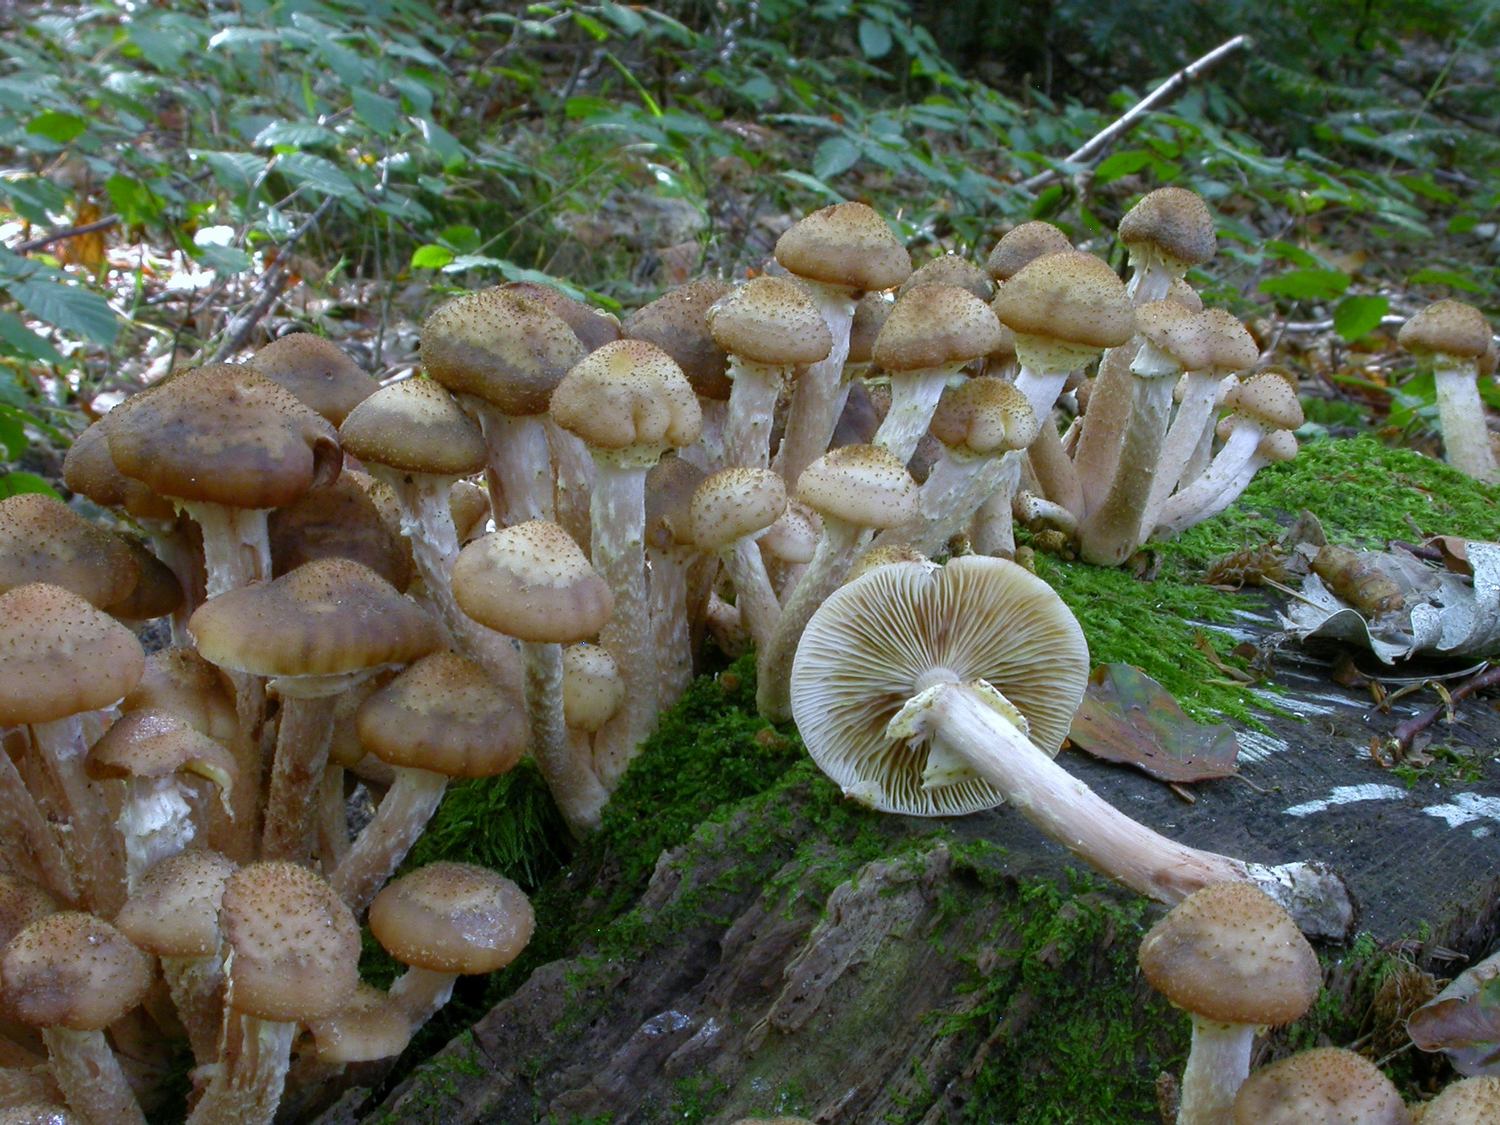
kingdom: Fungi
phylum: Basidiomycota
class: Agaricomycetes
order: Agaricales
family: Physalacriaceae
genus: Armillaria
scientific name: Armillaria lutea
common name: køllestokket honningsvamp
